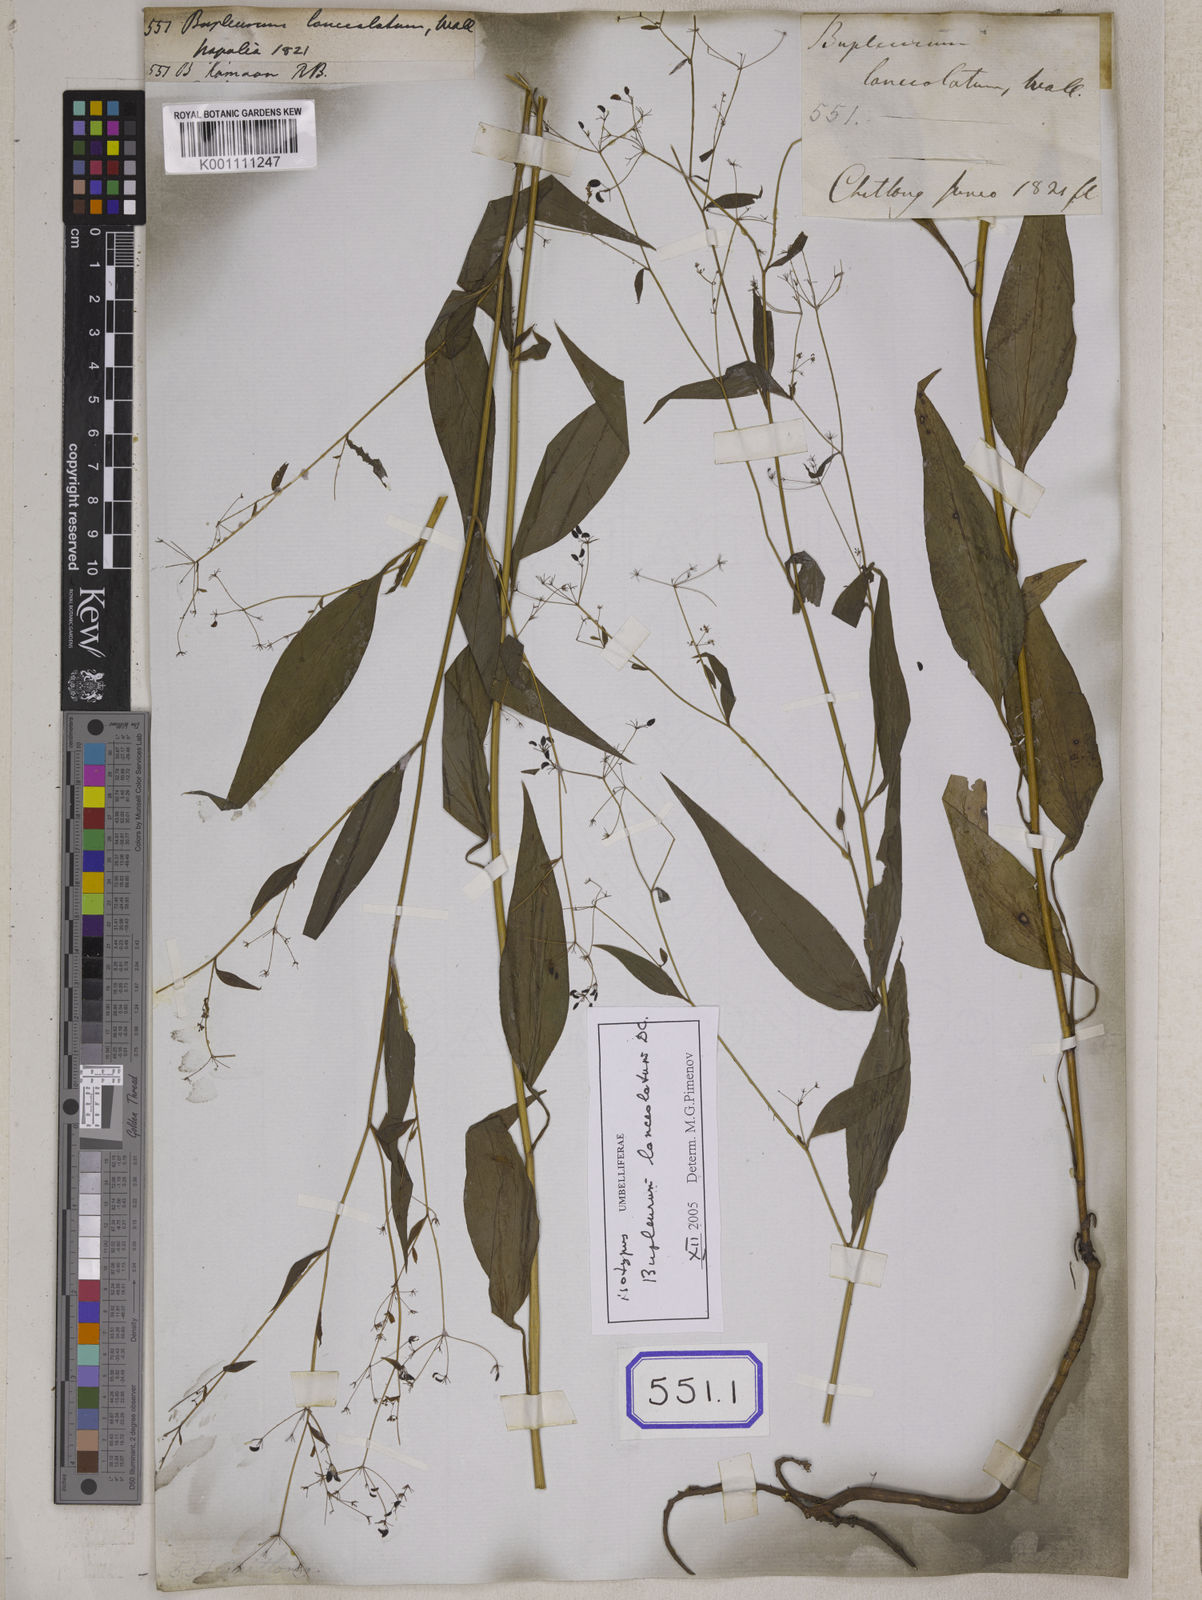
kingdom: Plantae
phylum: Tracheophyta
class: Magnoliopsida
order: Apiales
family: Apiaceae
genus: Bupleurum
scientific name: Bupleurum
